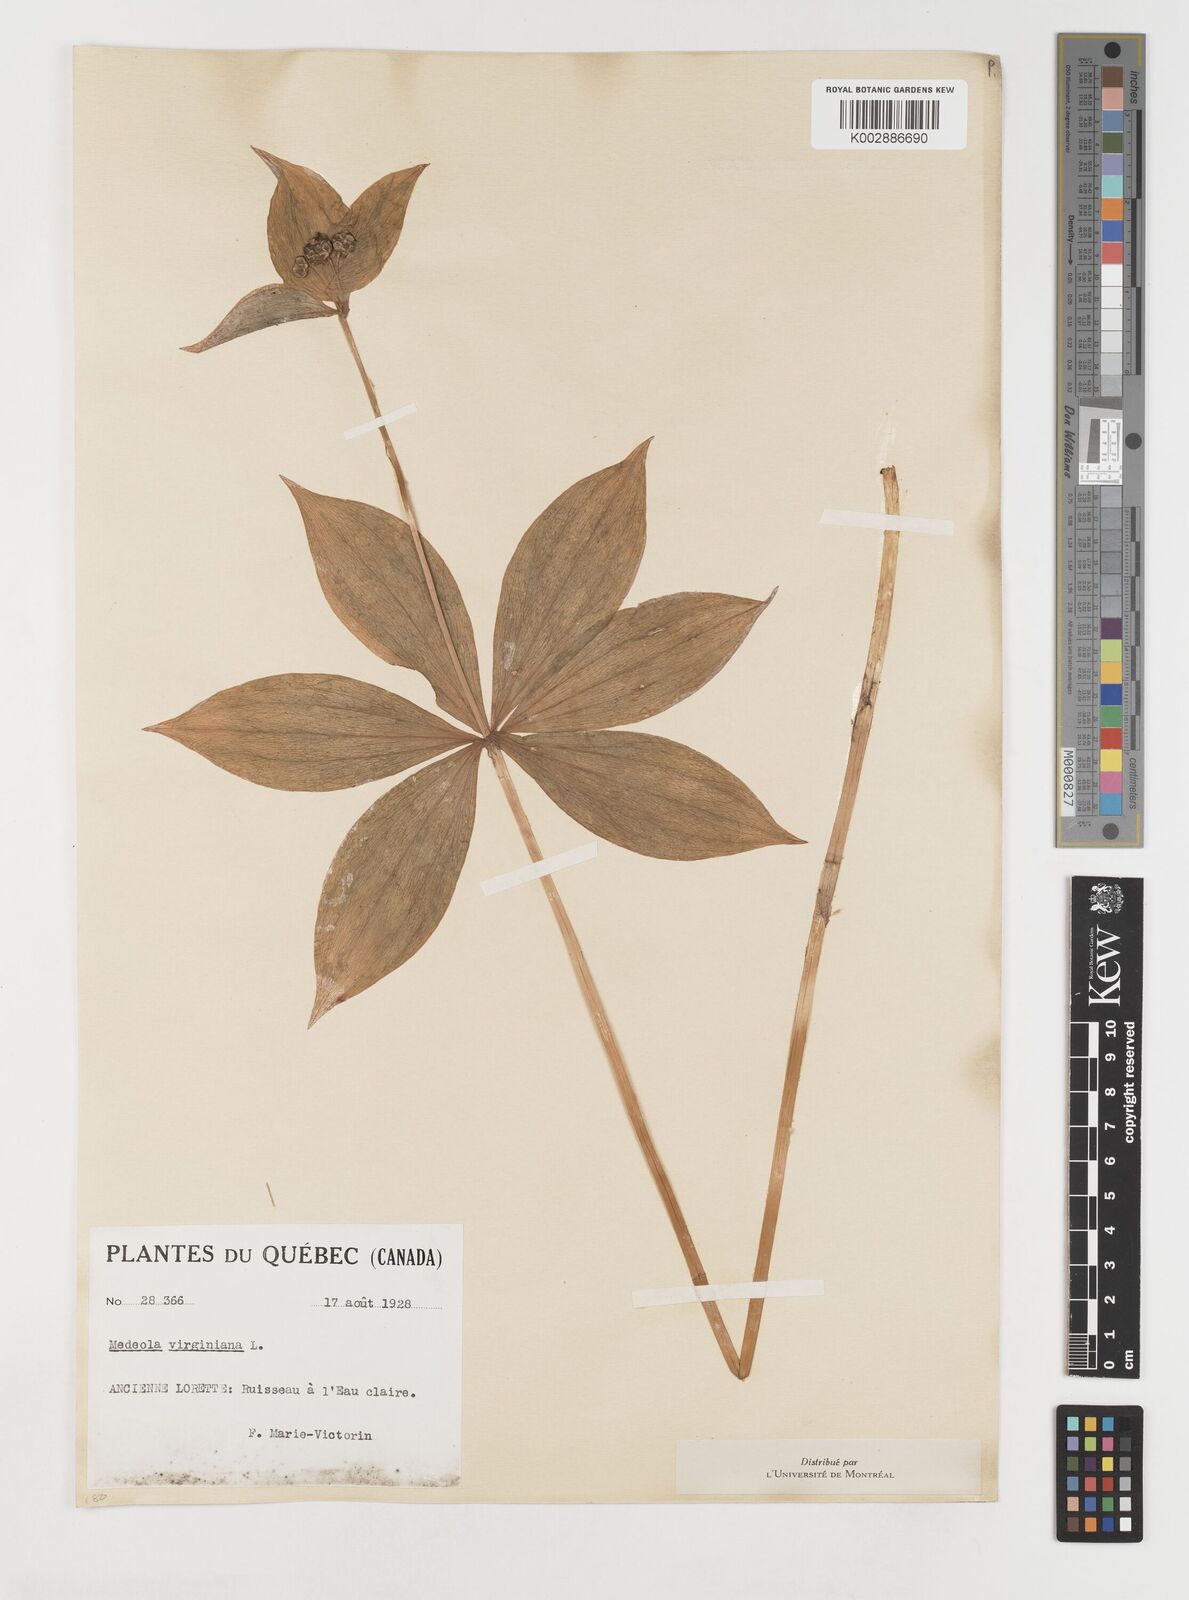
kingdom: Plantae
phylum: Tracheophyta
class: Liliopsida
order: Liliales
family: Liliaceae
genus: Medeola
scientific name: Medeola virginiana
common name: Indian cucumber-root
